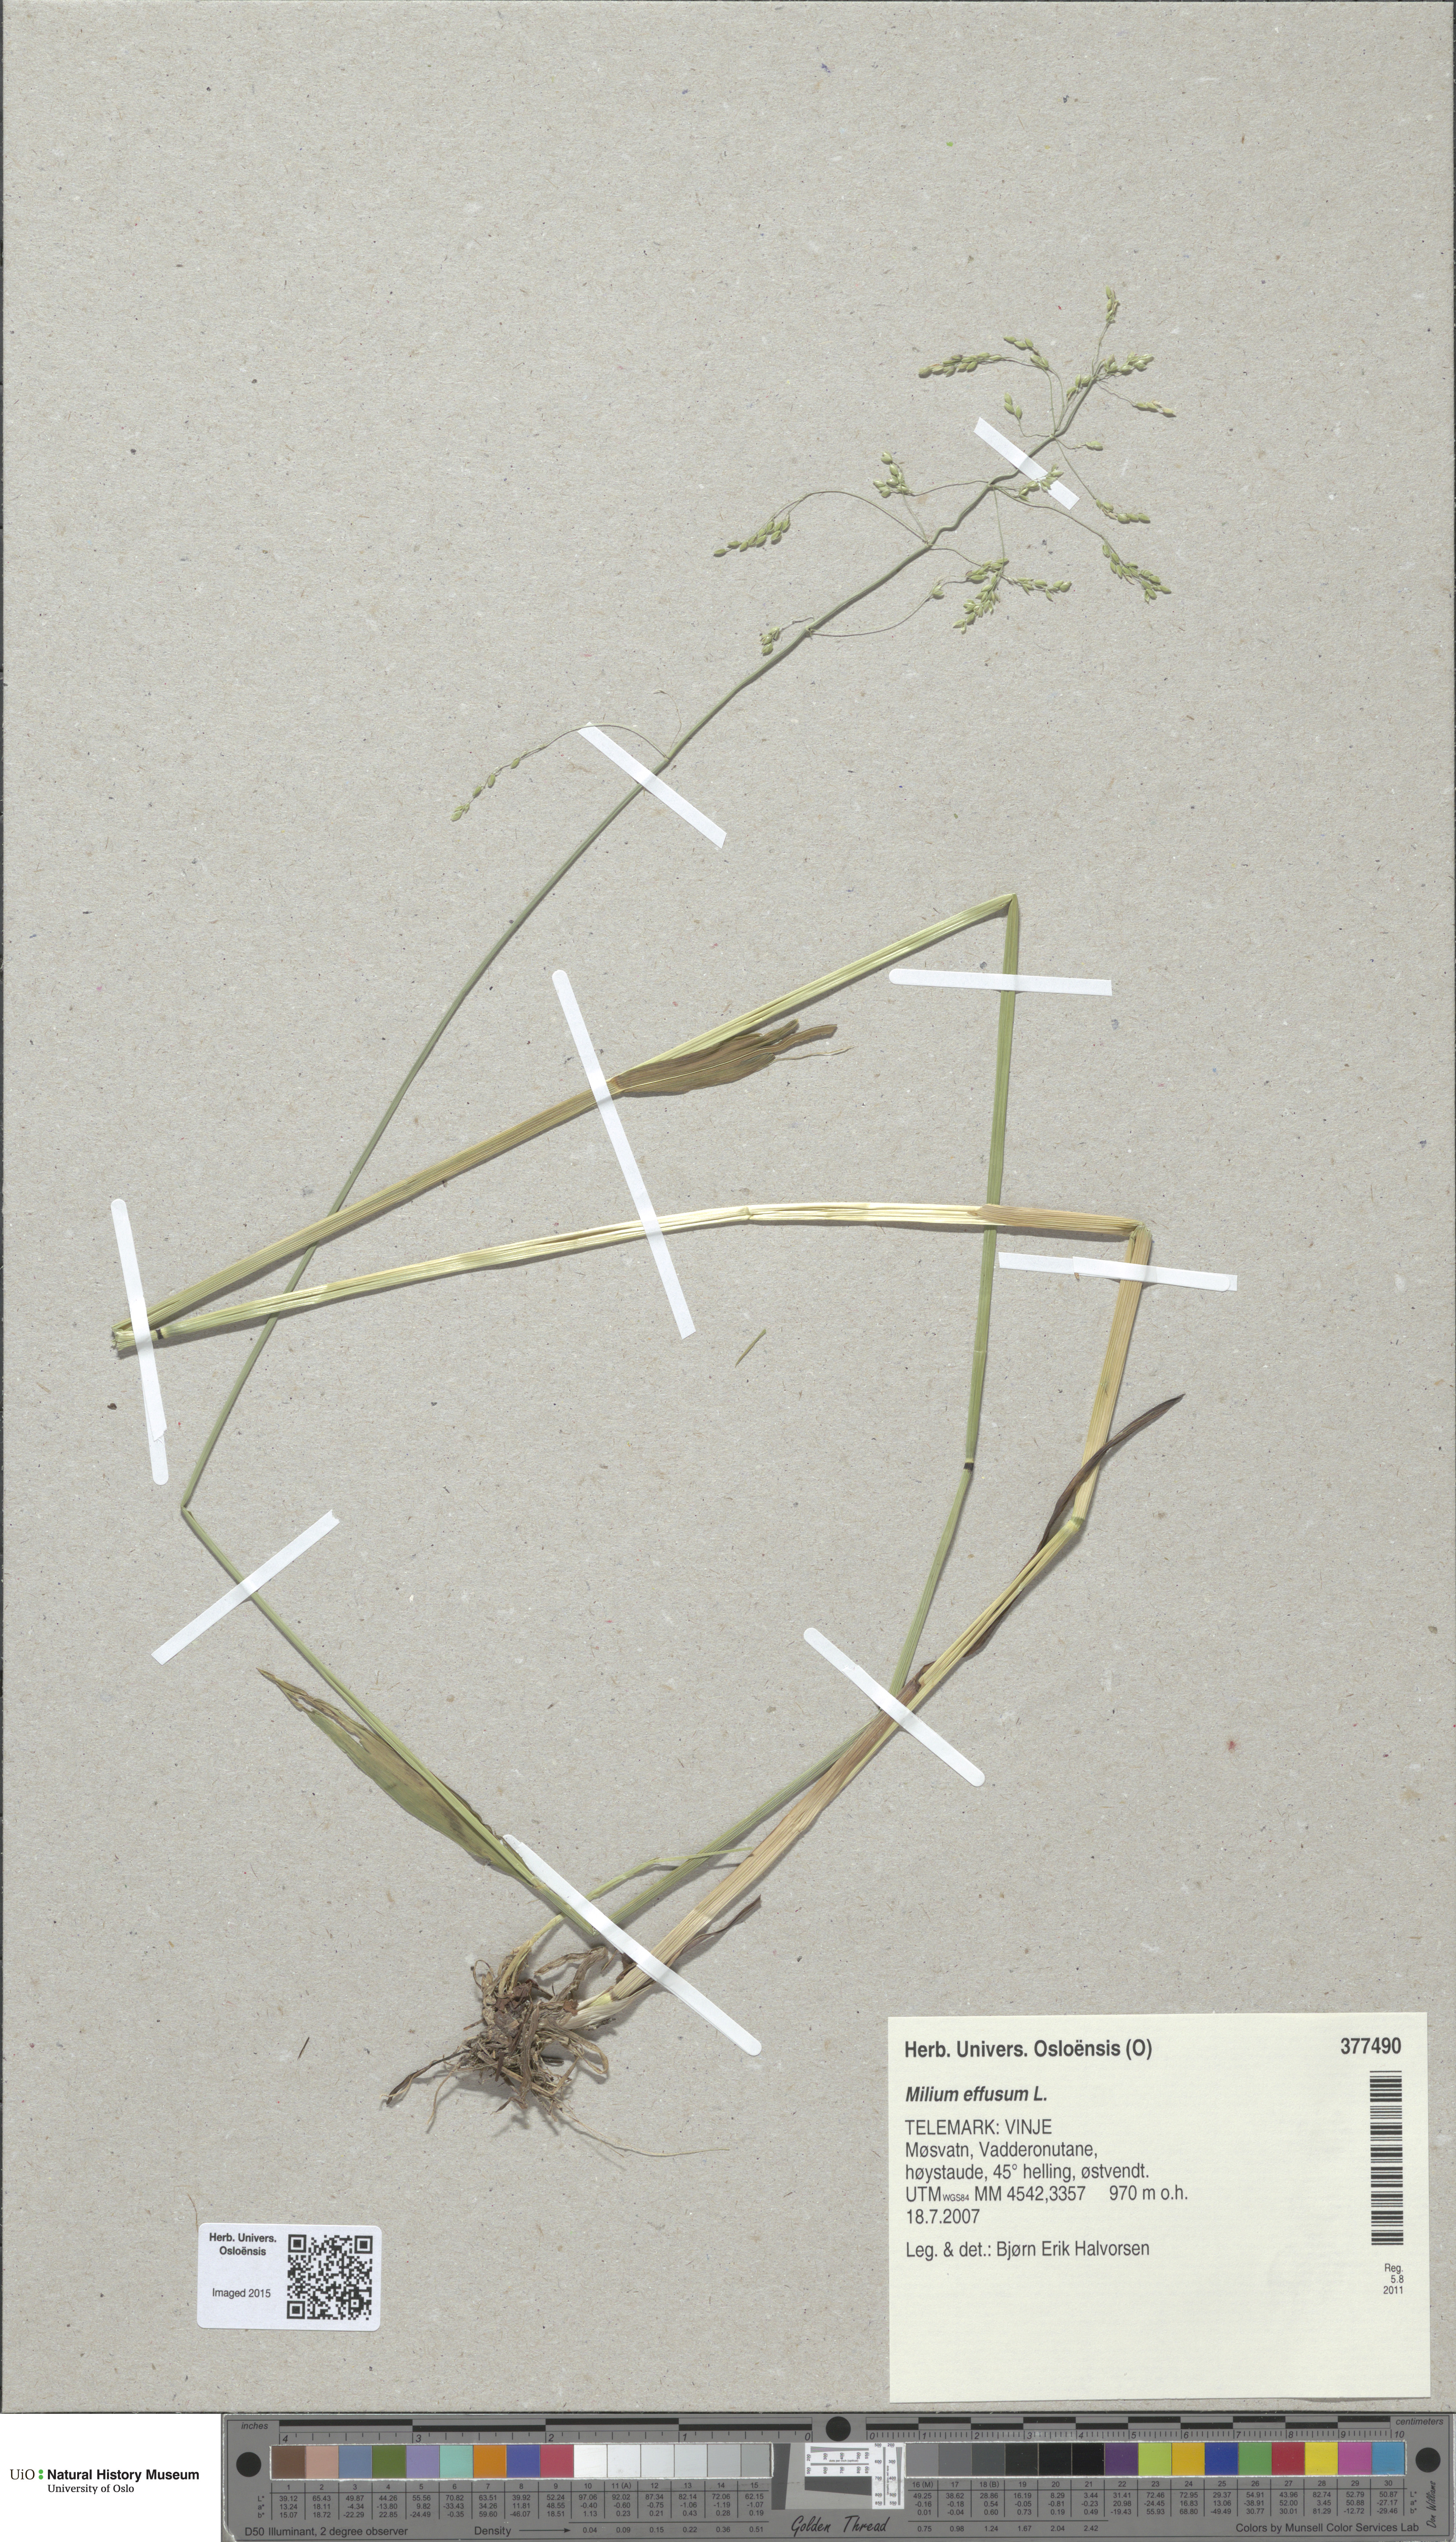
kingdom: Plantae
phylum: Tracheophyta
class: Liliopsida
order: Poales
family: Poaceae
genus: Milium
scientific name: Milium effusum
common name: Wood millet
